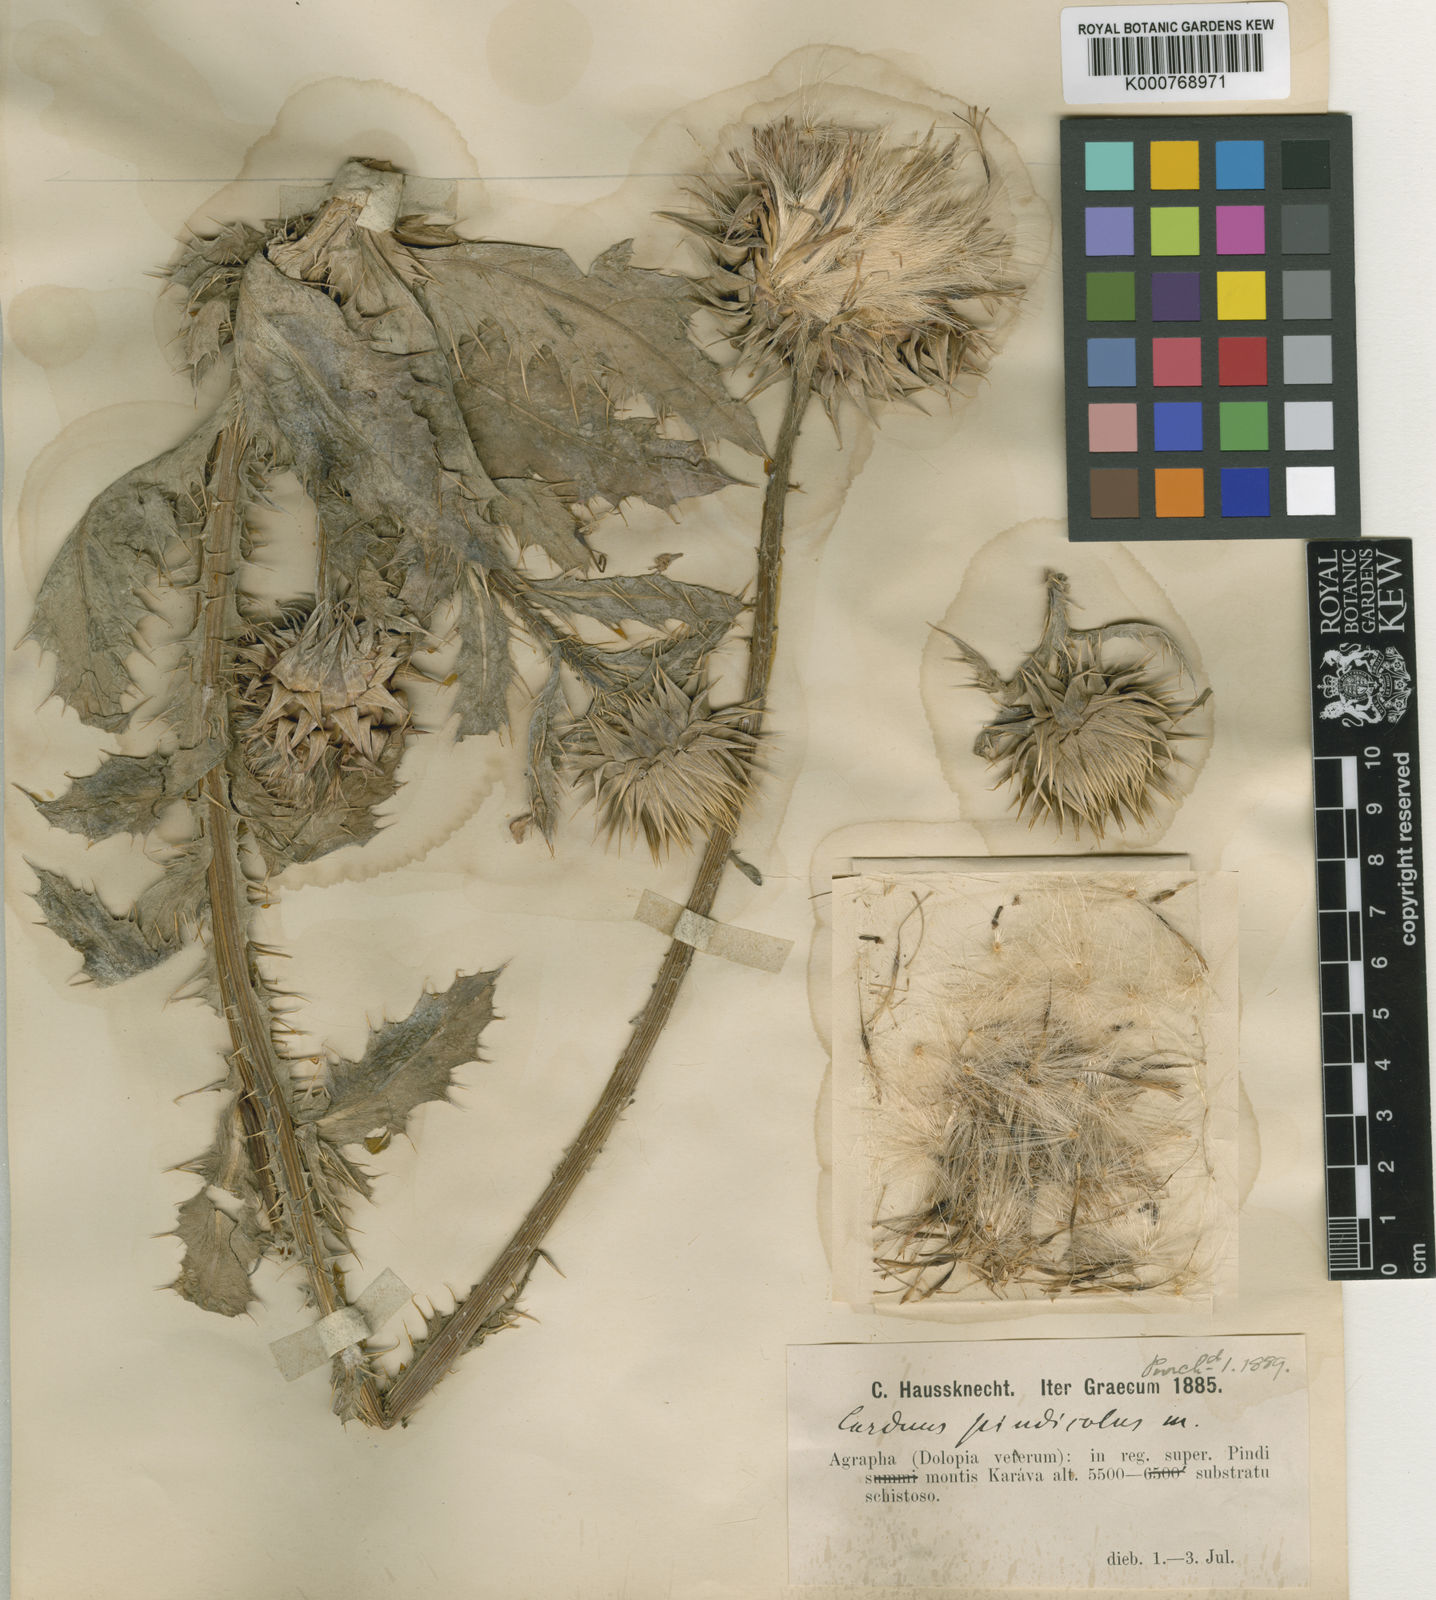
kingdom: Plantae
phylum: Tracheophyta
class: Magnoliopsida
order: Asterales
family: Asteraceae
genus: Carduus
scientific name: Carduus nutans
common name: Musk thistle
